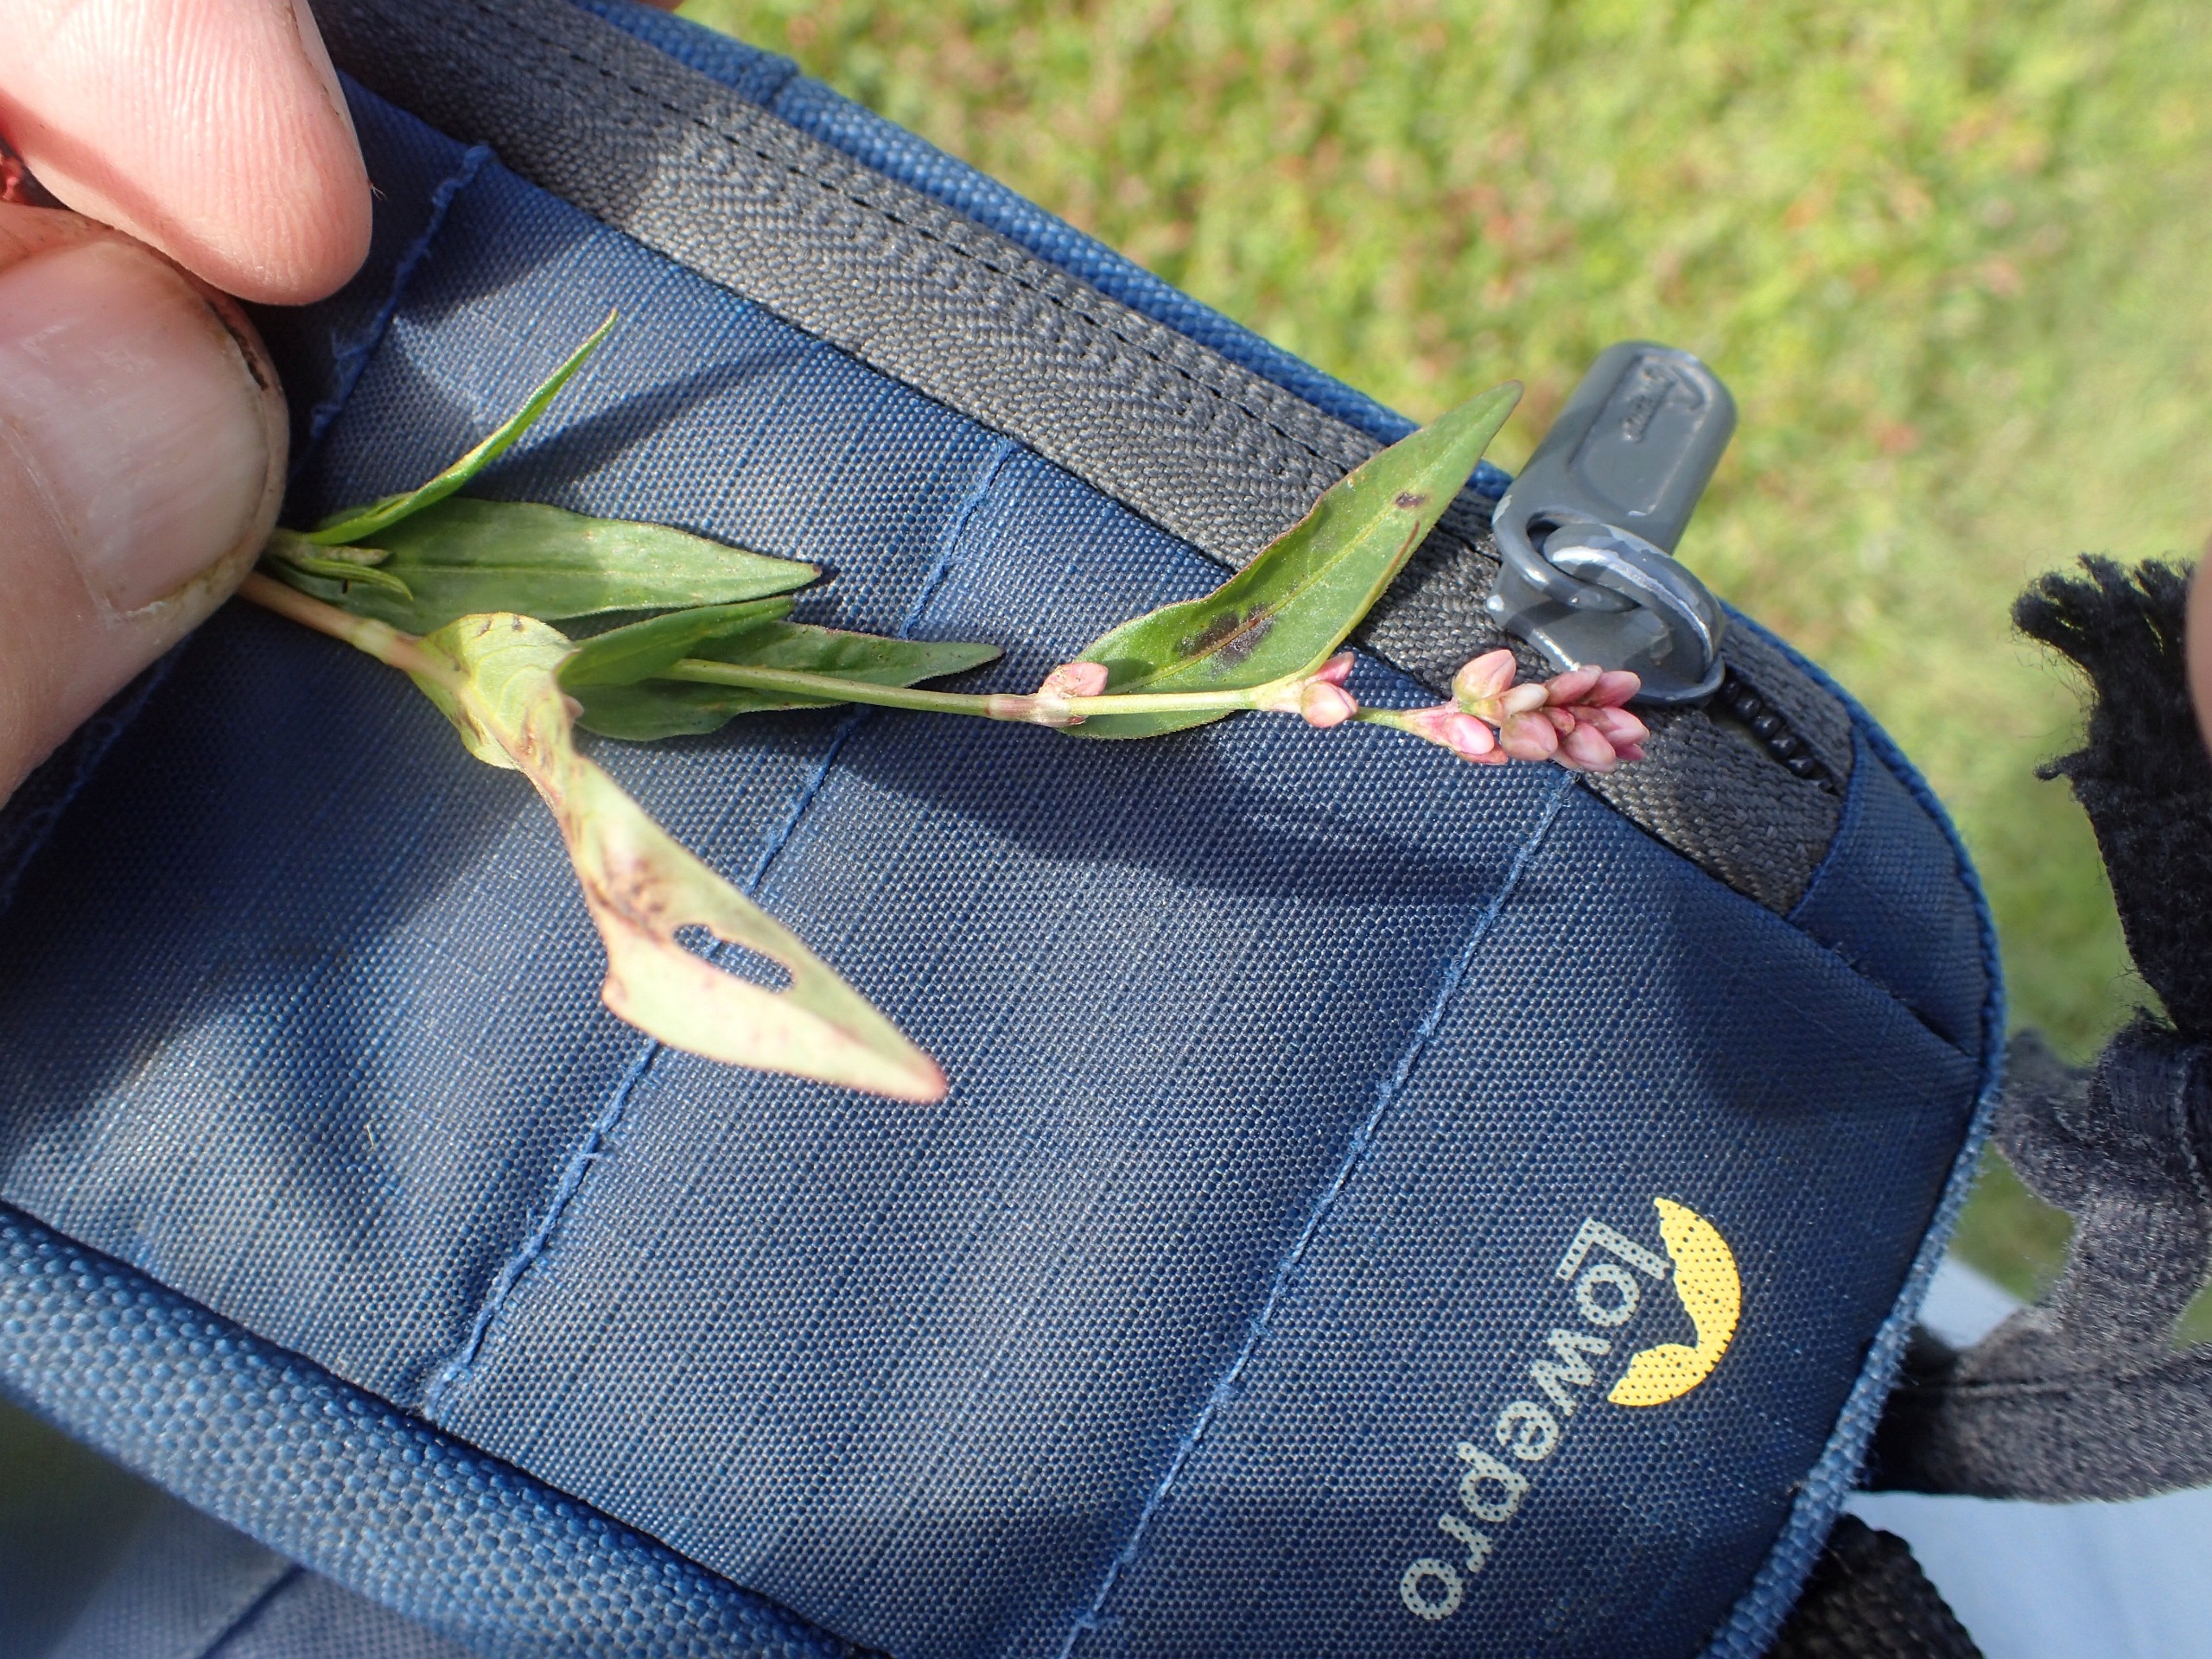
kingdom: Plantae
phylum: Tracheophyta
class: Magnoliopsida
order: Caryophyllales
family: Polygonaceae
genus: Persicaria
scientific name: Persicaria maculosa
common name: Fersken-pileurt
